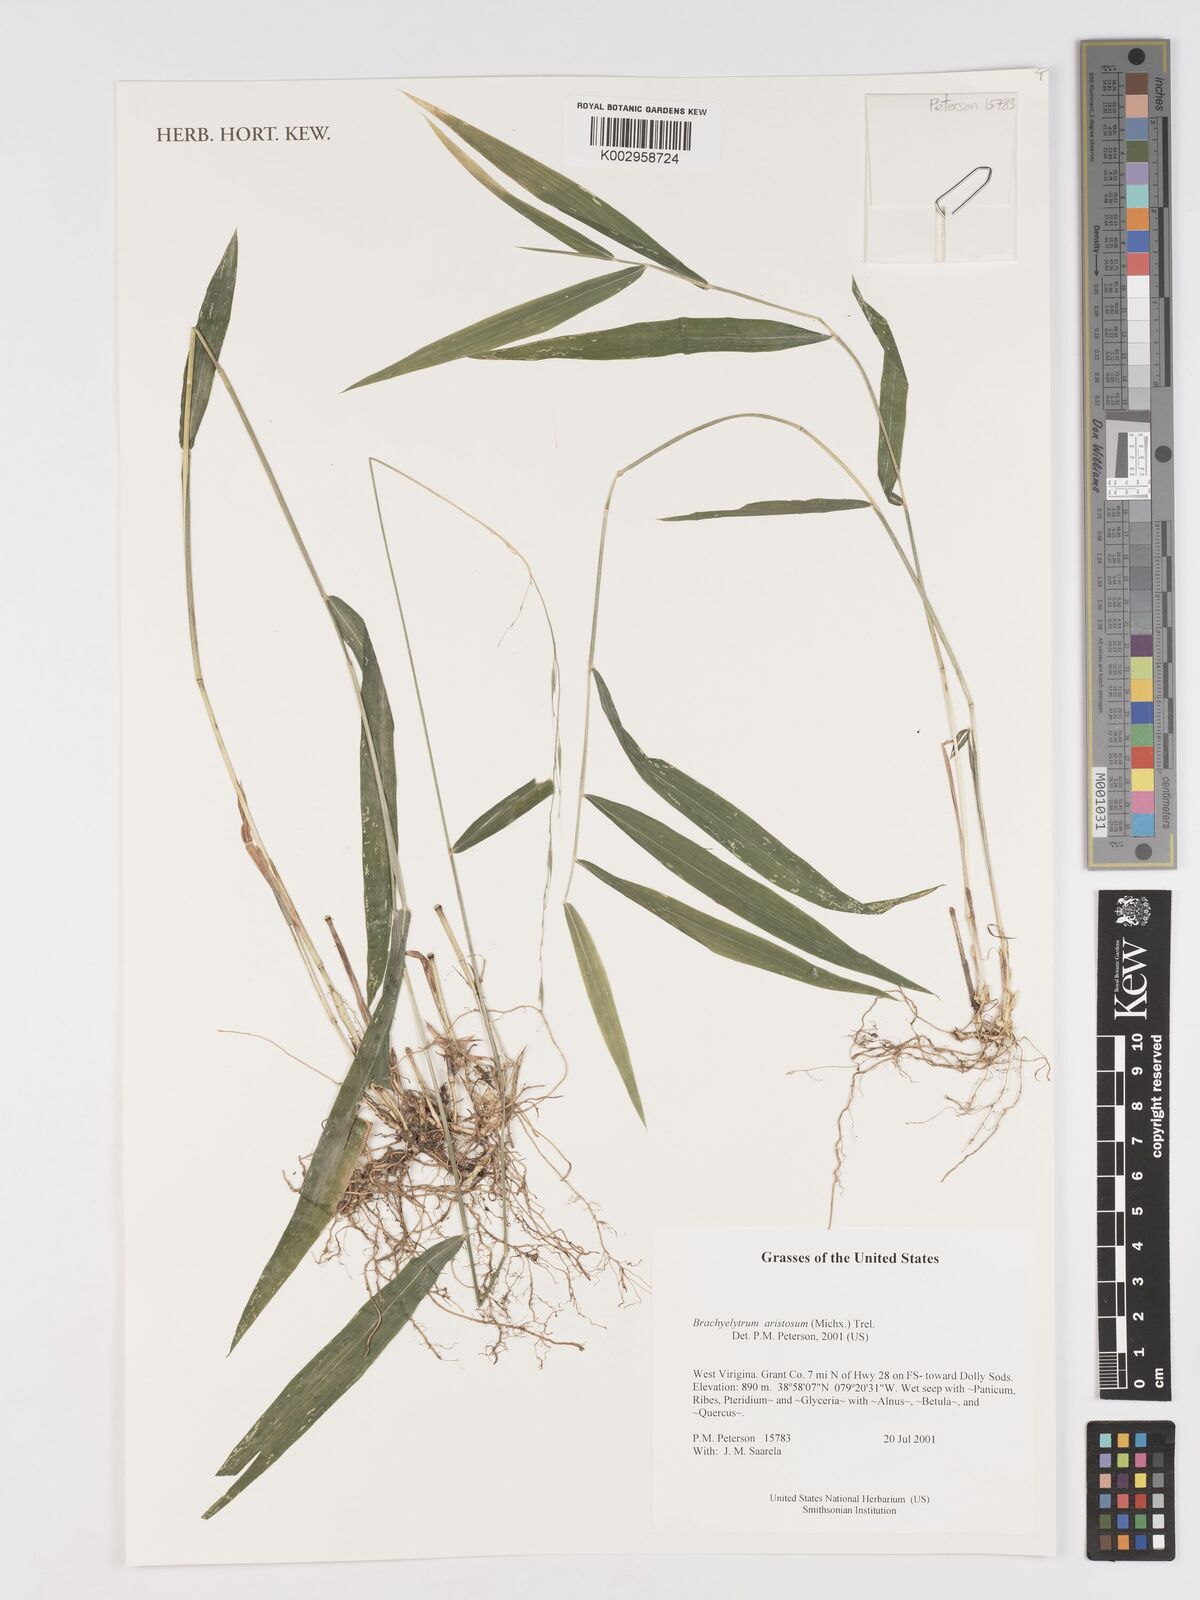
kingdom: Plantae
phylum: Tracheophyta
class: Liliopsida
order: Poales
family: Poaceae
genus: Brachyelytrum
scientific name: Brachyelytrum aristosum
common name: Northern shorthusk
